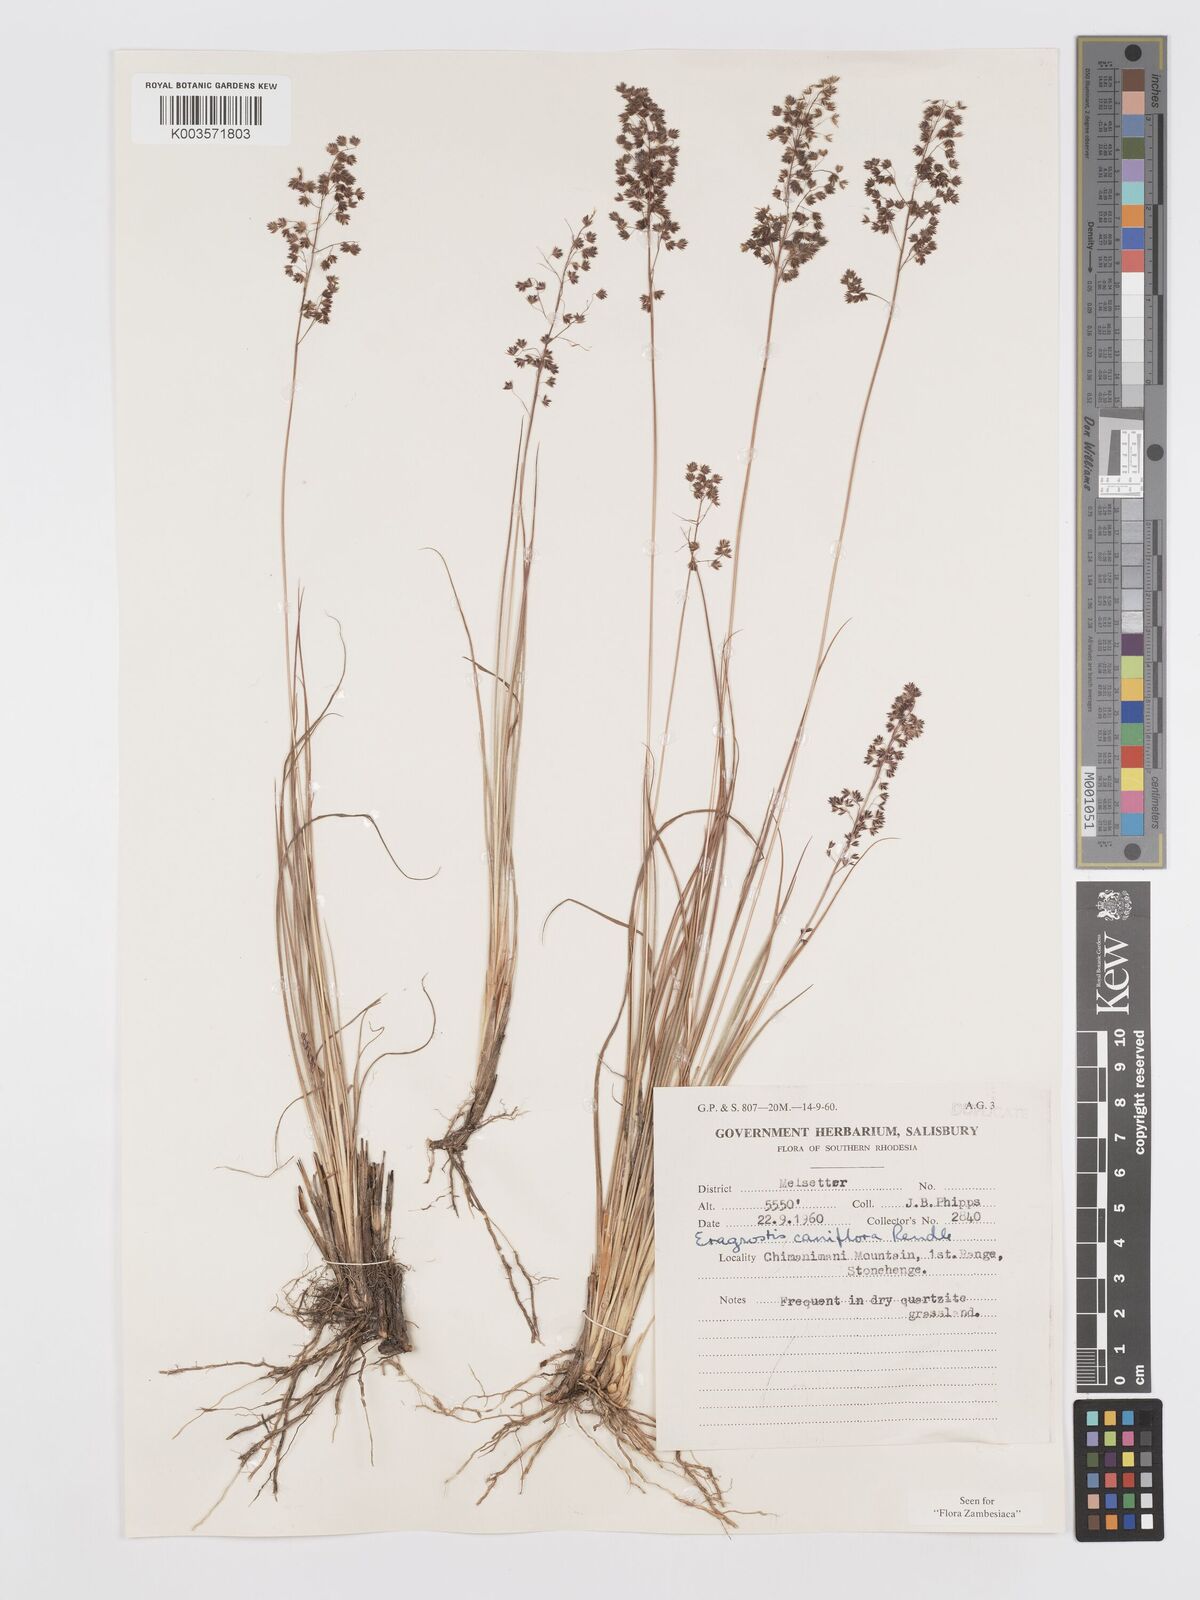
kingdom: Plantae
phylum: Tracheophyta
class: Liliopsida
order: Poales
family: Poaceae
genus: Eragrostis
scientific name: Eragrostis caniflora
